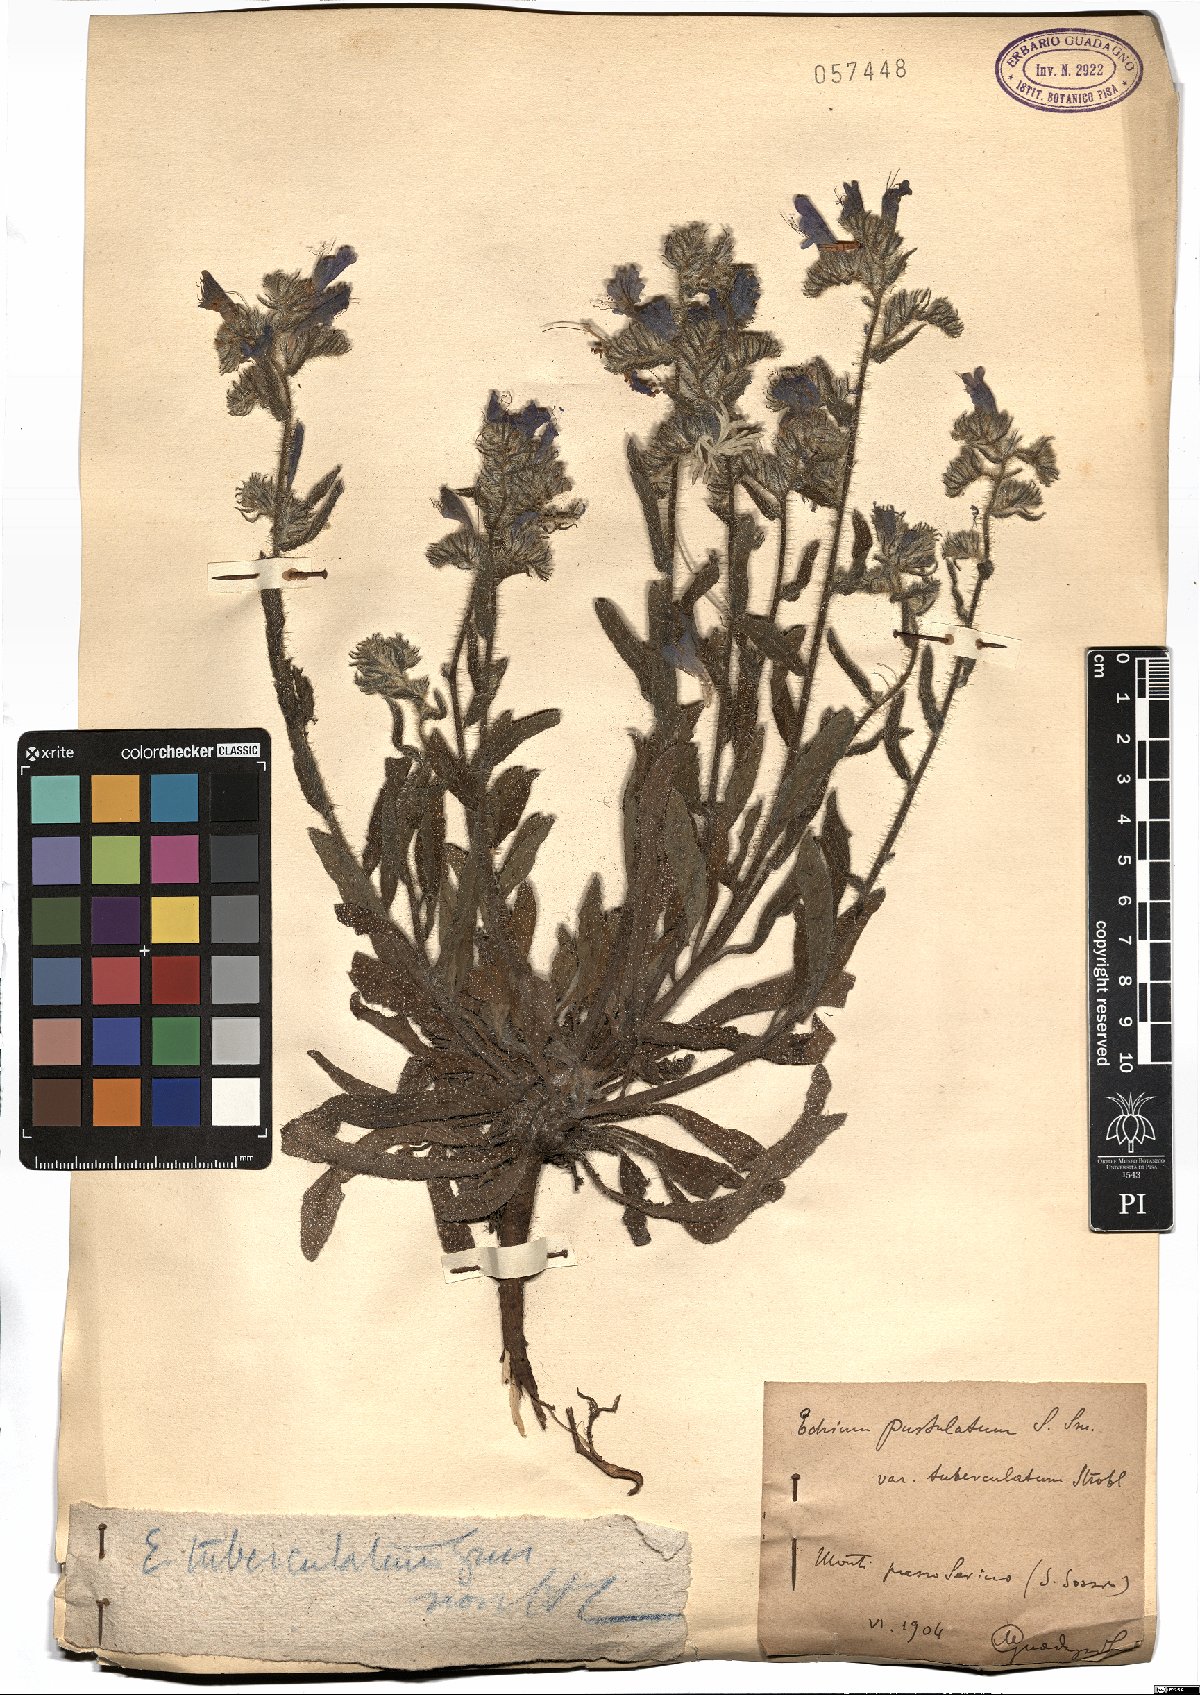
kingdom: Plantae
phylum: Tracheophyta
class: Magnoliopsida
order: Boraginales
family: Boraginaceae
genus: Echium
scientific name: Echium vulgare
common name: Common viper's bugloss
